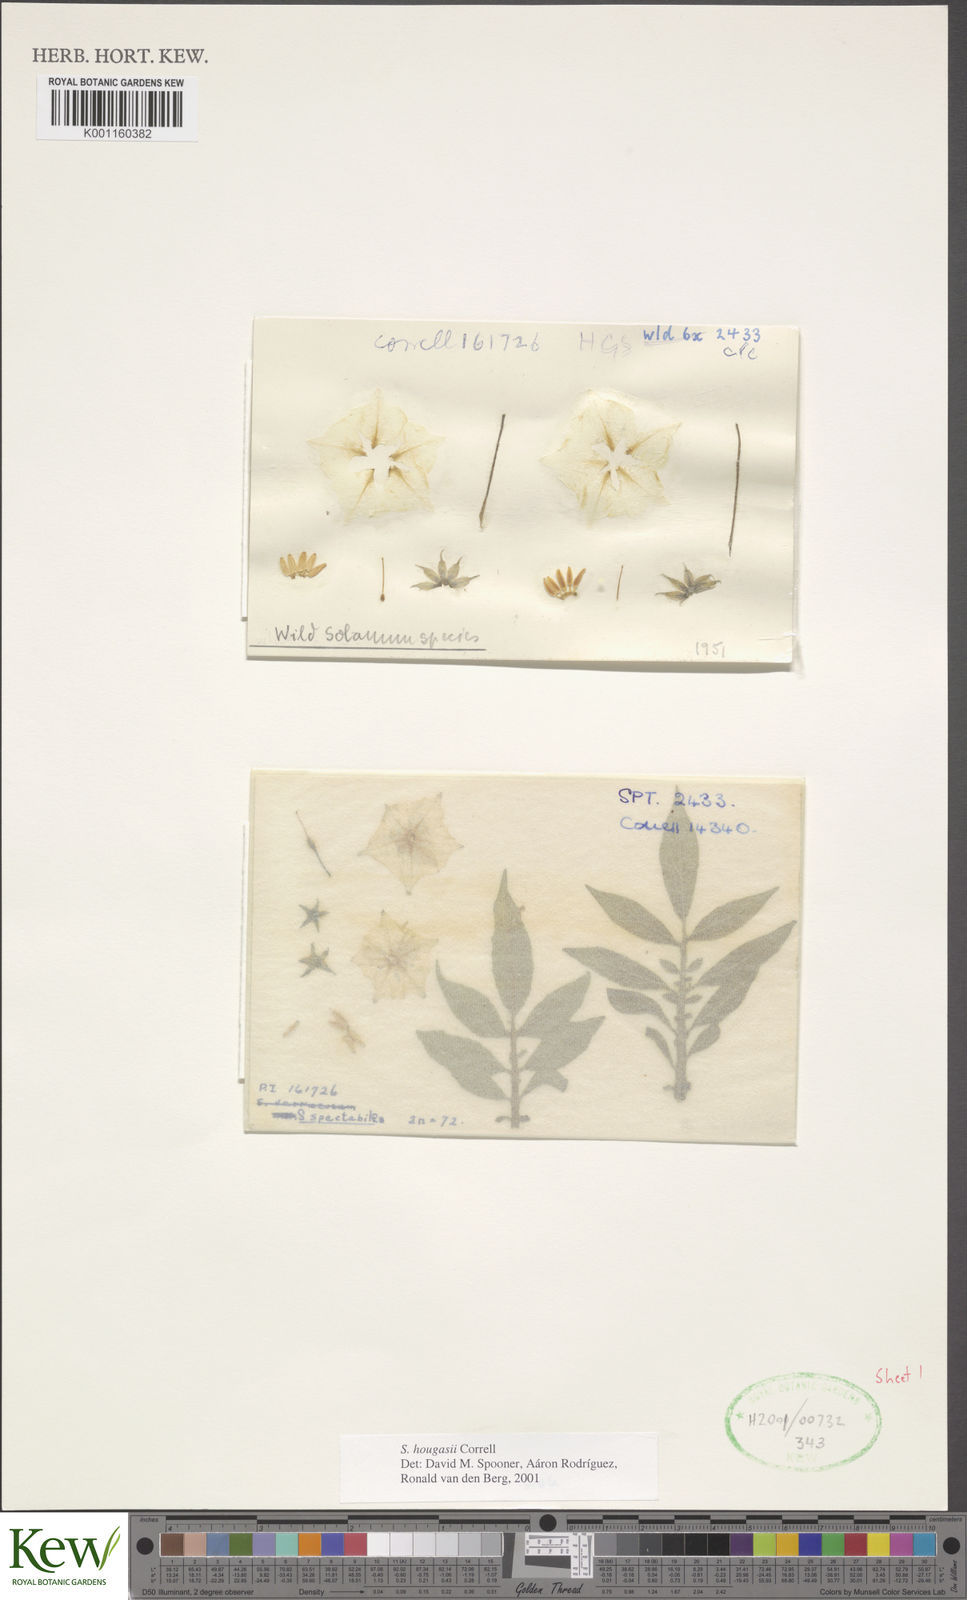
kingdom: Plantae
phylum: Tracheophyta
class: Magnoliopsida
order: Solanales
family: Solanaceae
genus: Solanum
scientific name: Solanum hougasii
